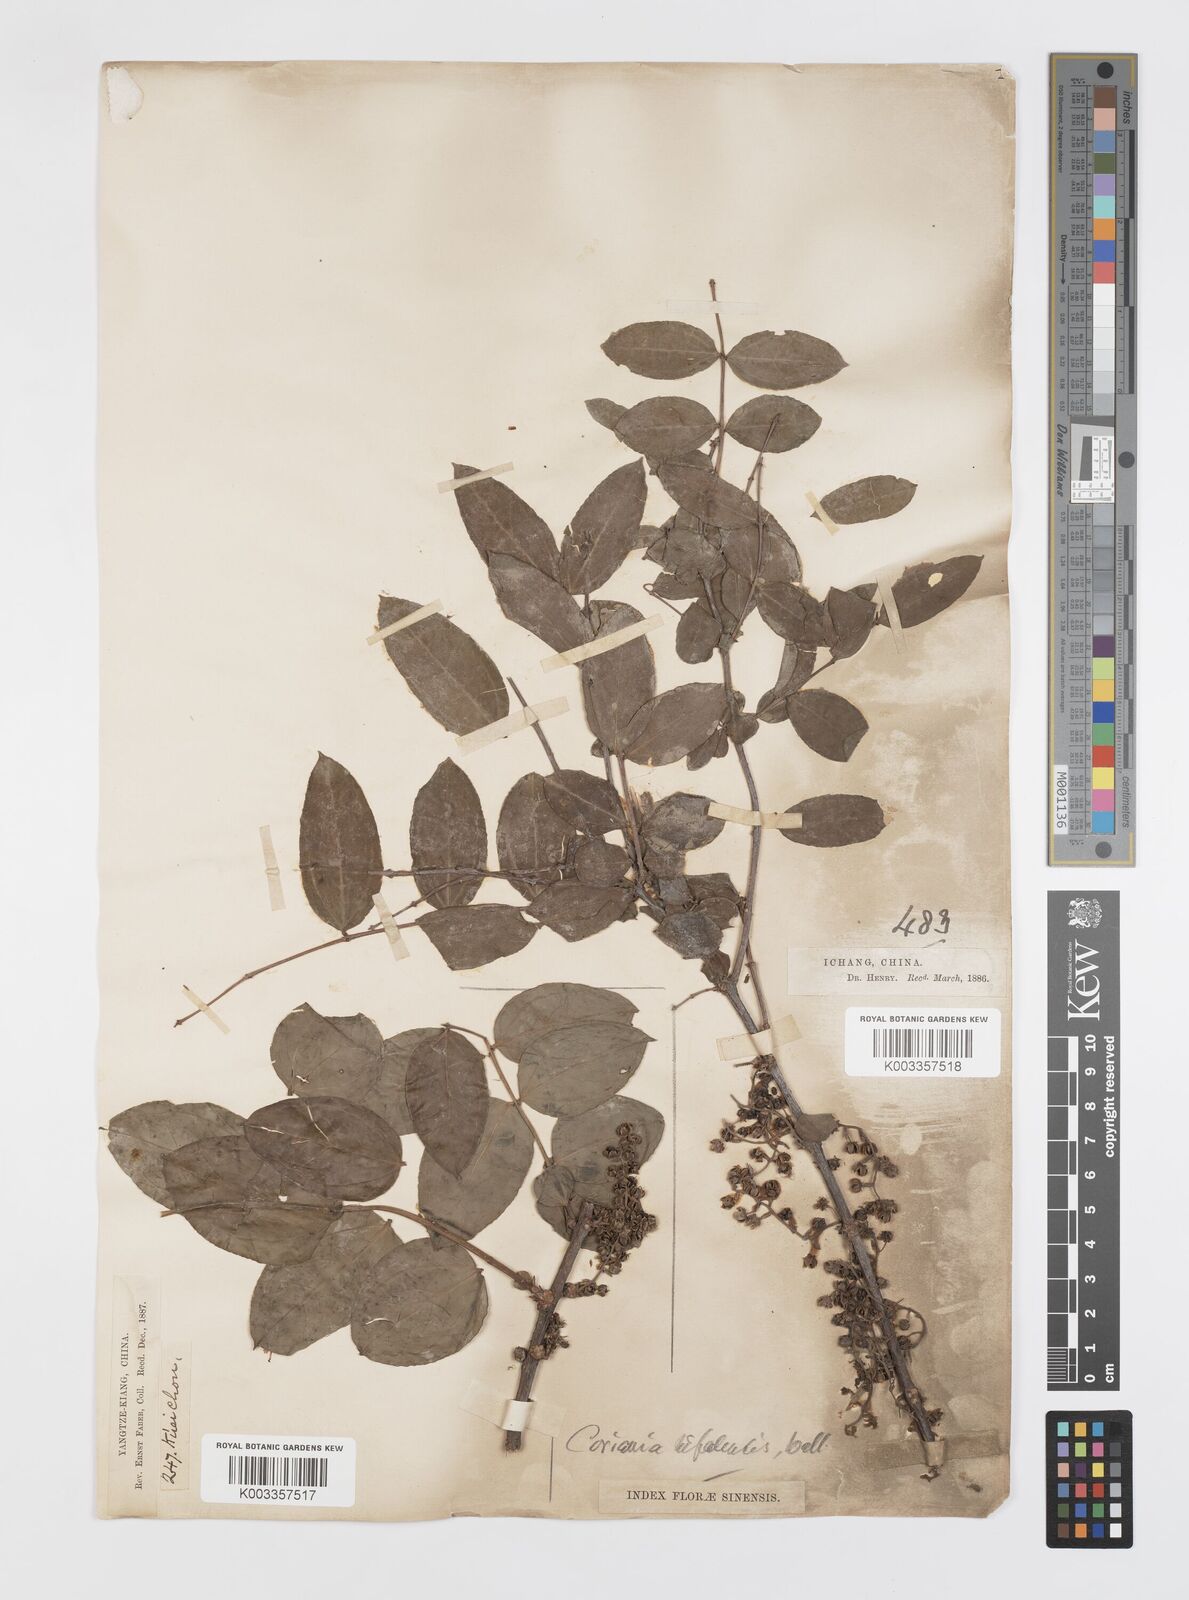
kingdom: Plantae
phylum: Tracheophyta
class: Magnoliopsida
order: Cucurbitales
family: Coriariaceae
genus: Coriaria
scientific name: Coriaria napalensis
